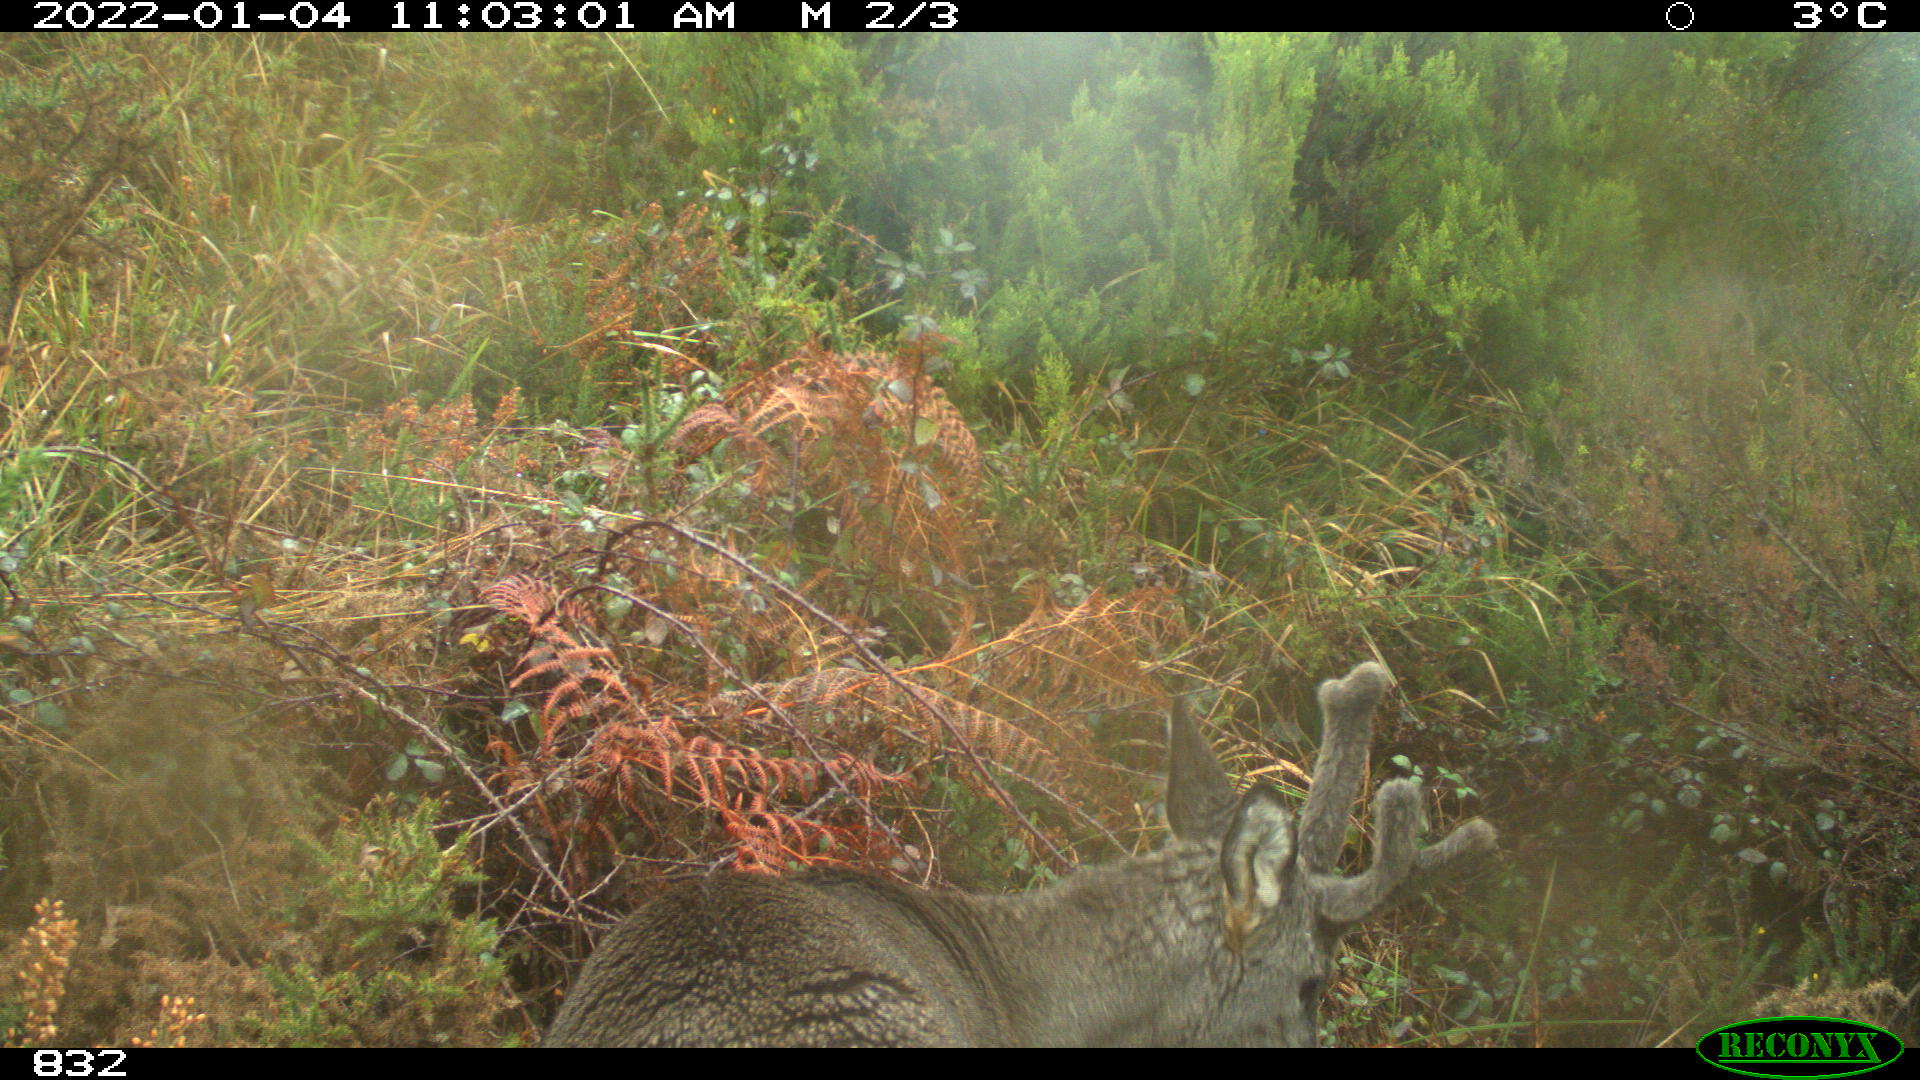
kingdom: Animalia
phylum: Chordata
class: Mammalia
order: Artiodactyla
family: Cervidae
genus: Capreolus
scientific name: Capreolus capreolus
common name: Western roe deer
